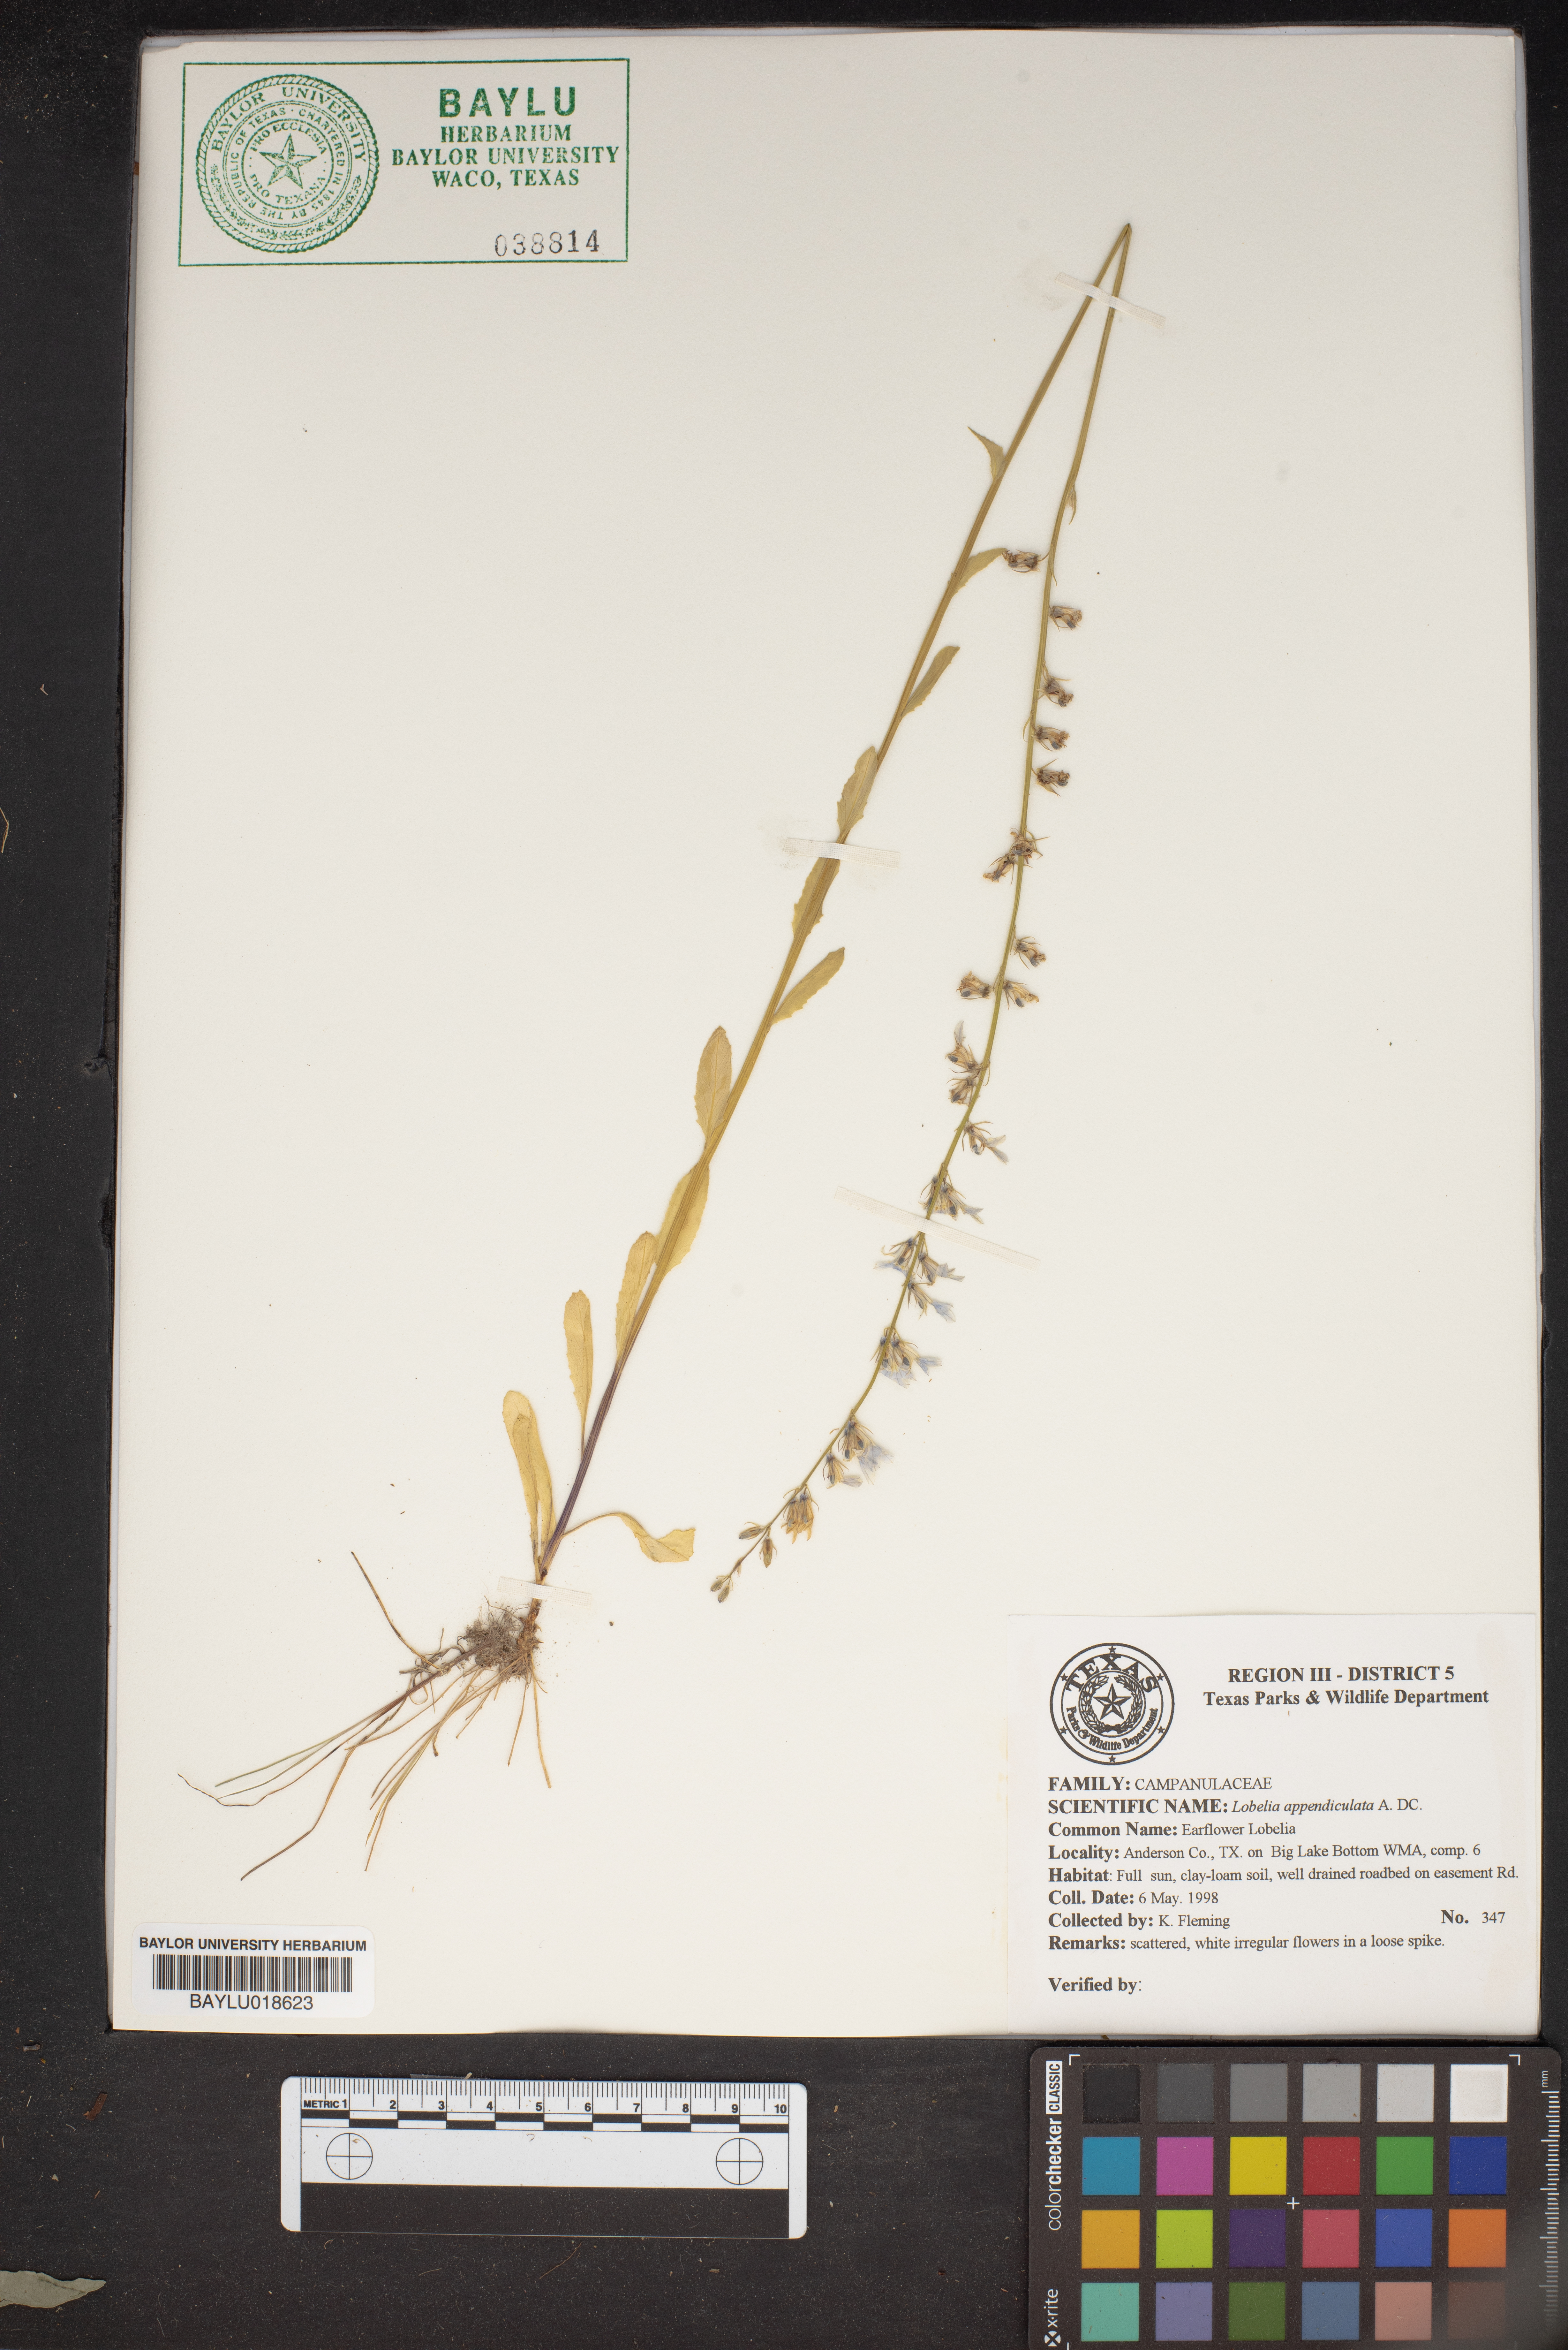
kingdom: Plantae
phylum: Tracheophyta
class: Magnoliopsida
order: Asterales
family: Campanulaceae
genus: Lobelia
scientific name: Lobelia appendiculata
